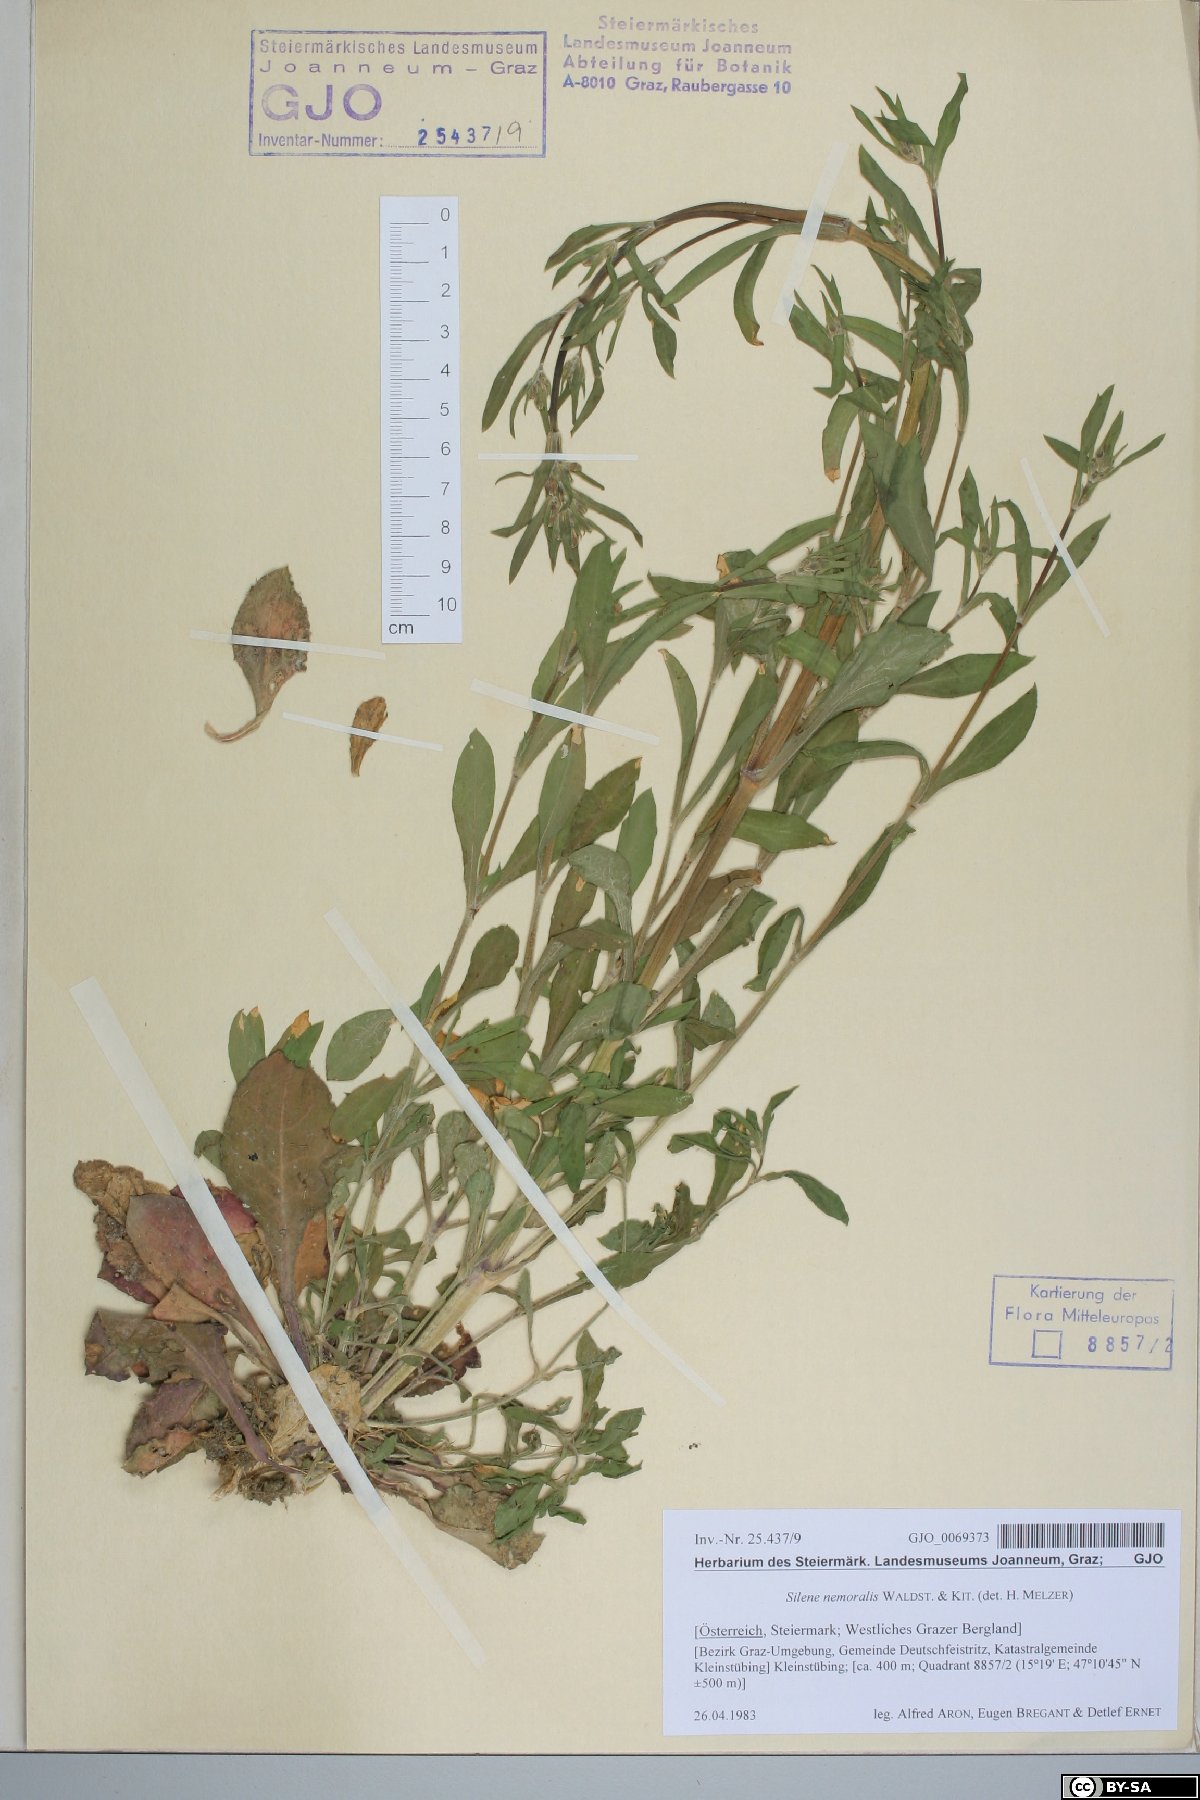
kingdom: Plantae
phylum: Tracheophyta
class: Magnoliopsida
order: Caryophyllales
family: Caryophyllaceae
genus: Silene
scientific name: Silene nemoralis
